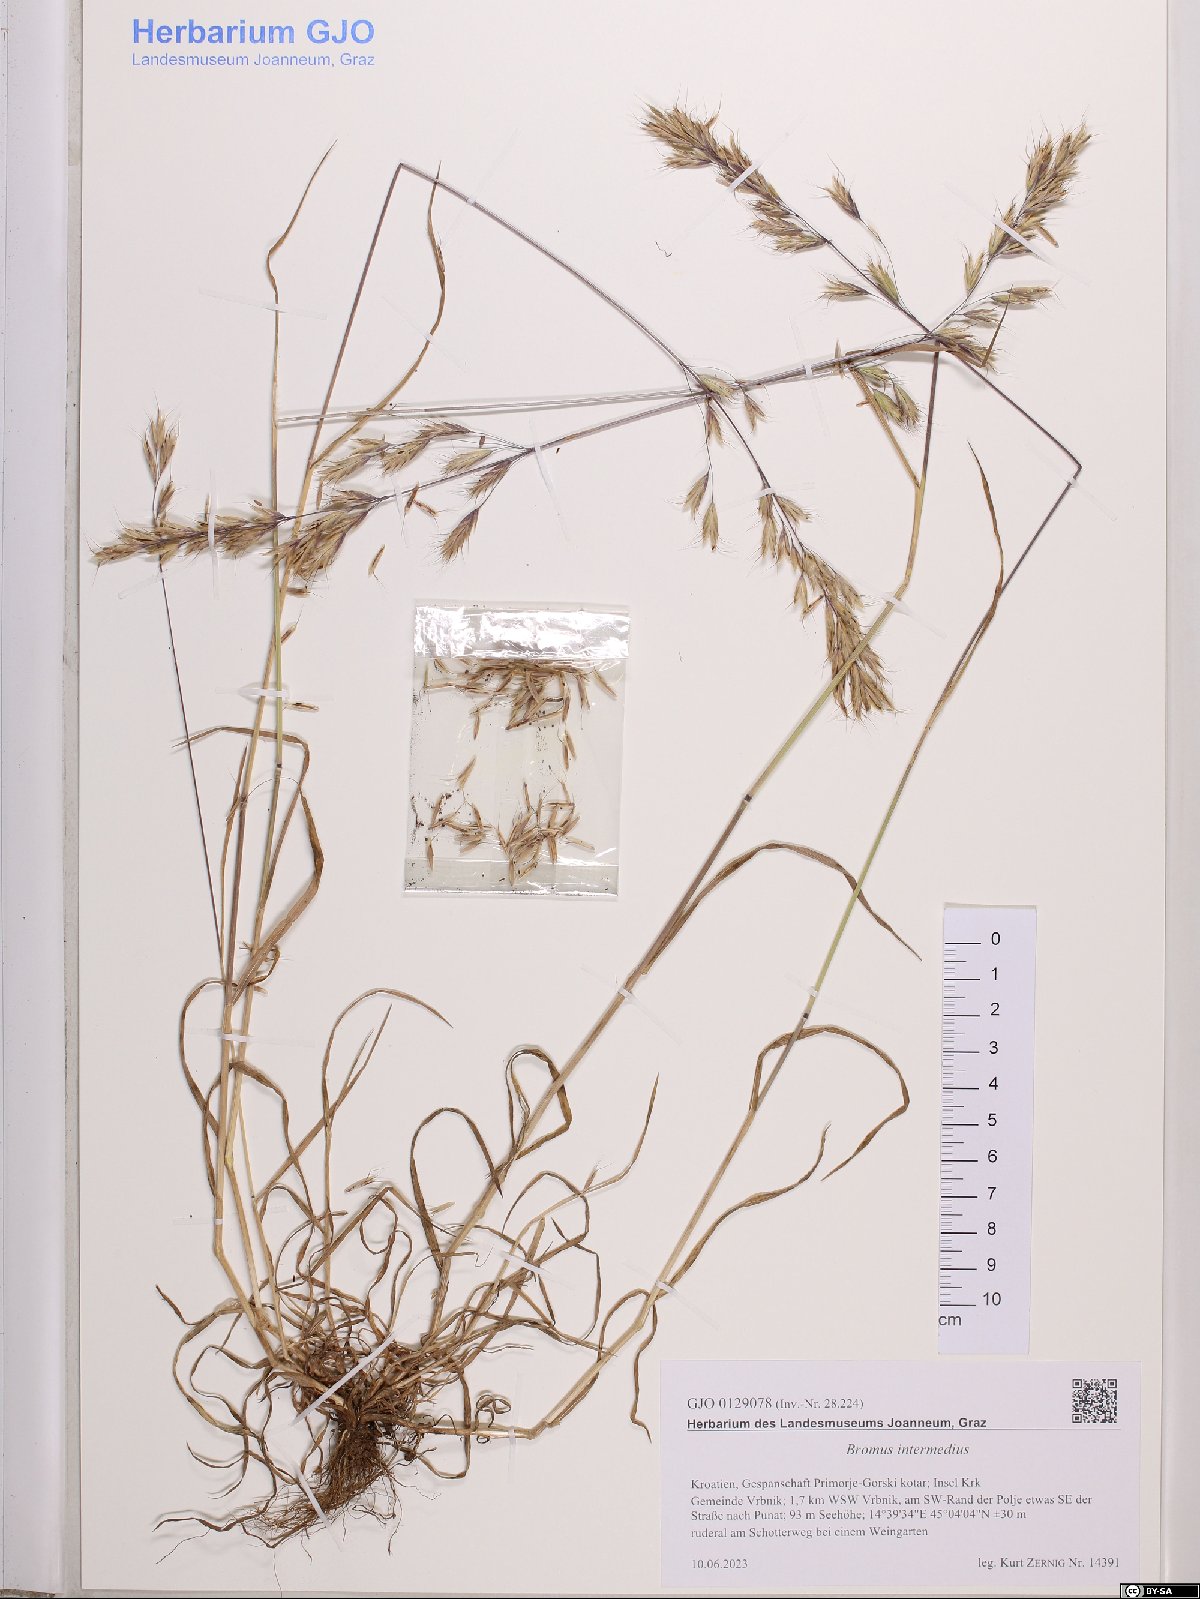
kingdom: Plantae
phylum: Tracheophyta
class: Liliopsida
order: Poales
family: Poaceae
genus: Bromus
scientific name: Bromus intermedius
